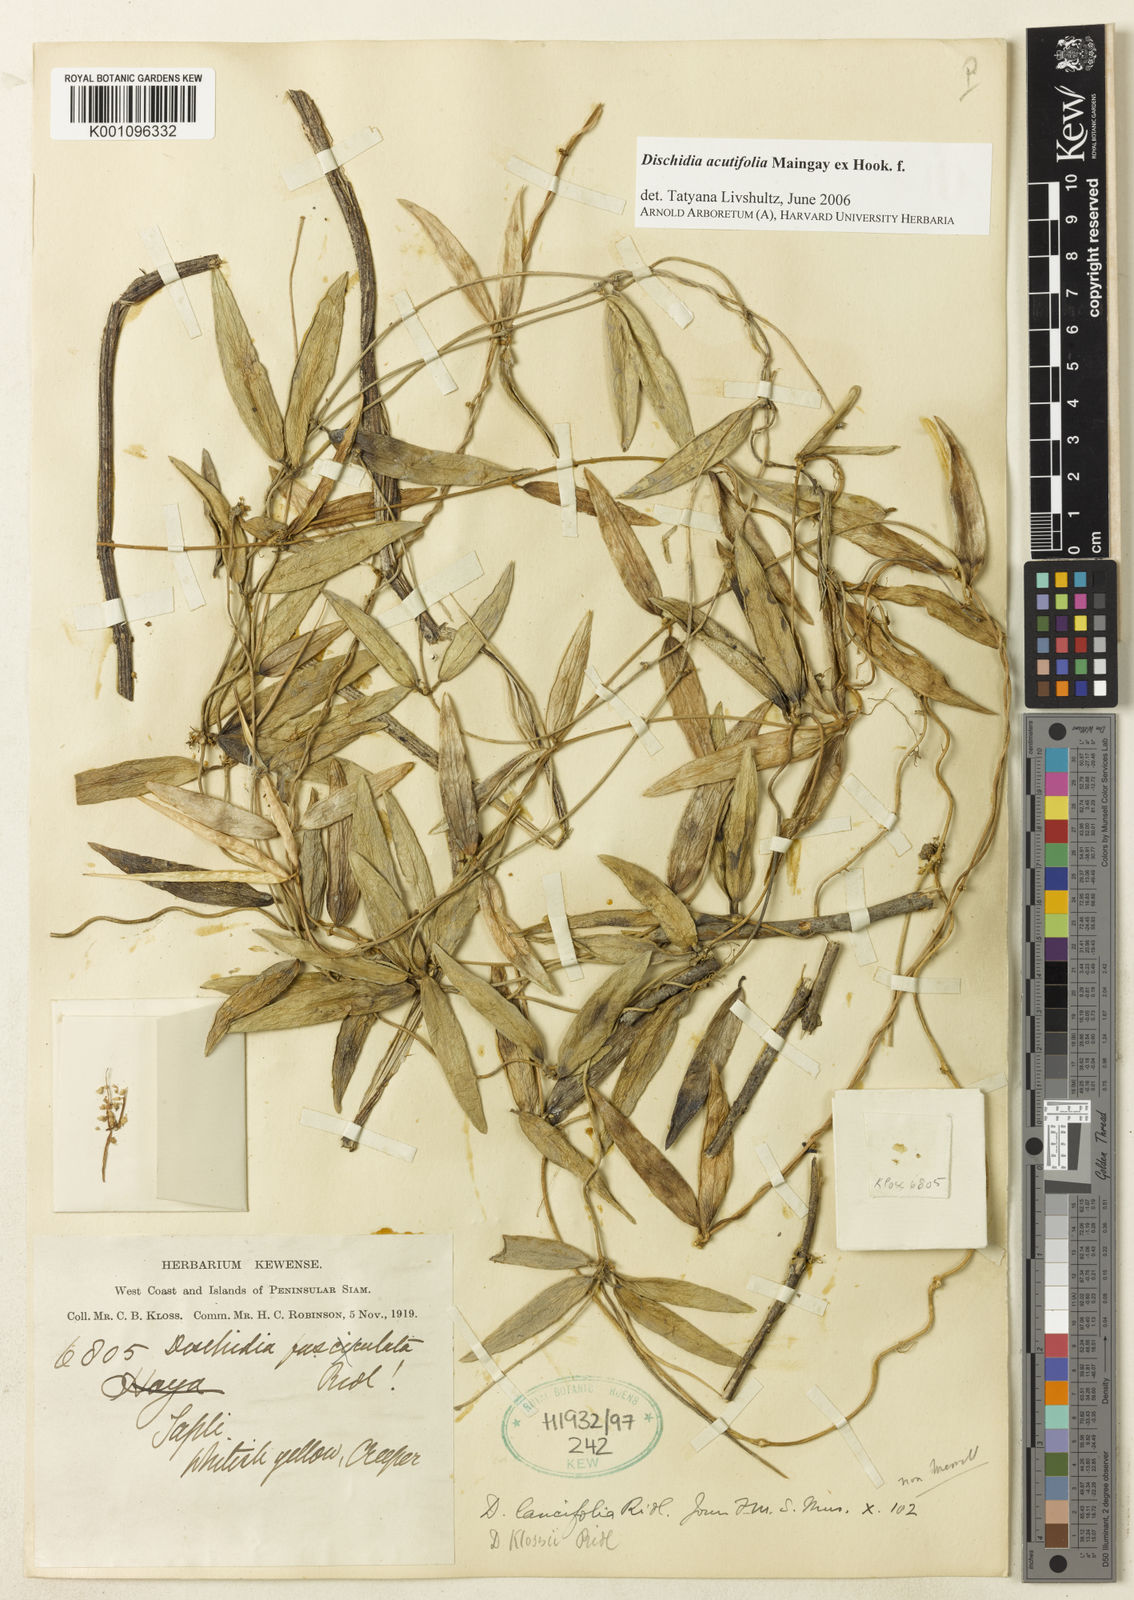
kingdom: Plantae
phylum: Tracheophyta
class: Magnoliopsida
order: Gentianales
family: Apocynaceae
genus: Dischidia
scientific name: Dischidia acutifolia
